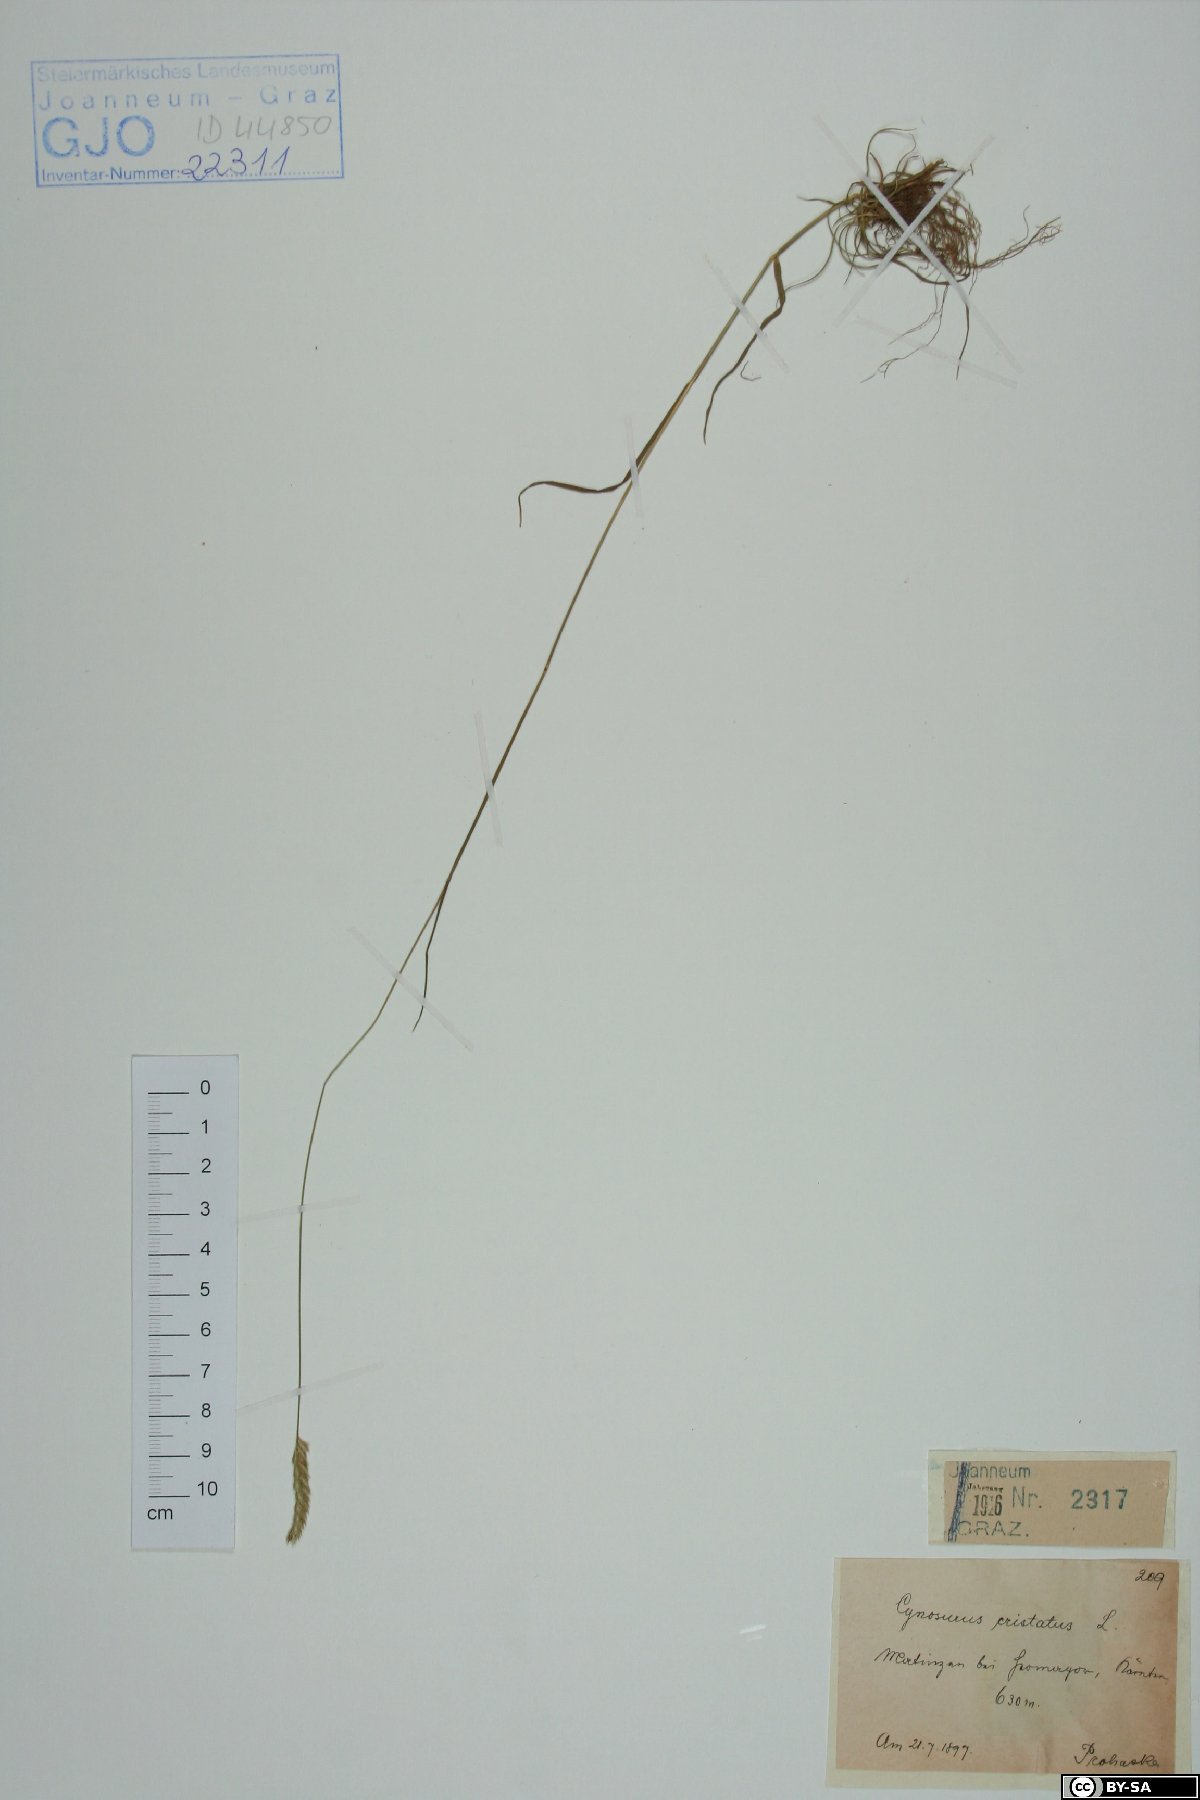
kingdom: Plantae
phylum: Tracheophyta
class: Liliopsida
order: Poales
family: Poaceae
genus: Cynosurus
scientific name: Cynosurus cristatus
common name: Crested dog's-tail
